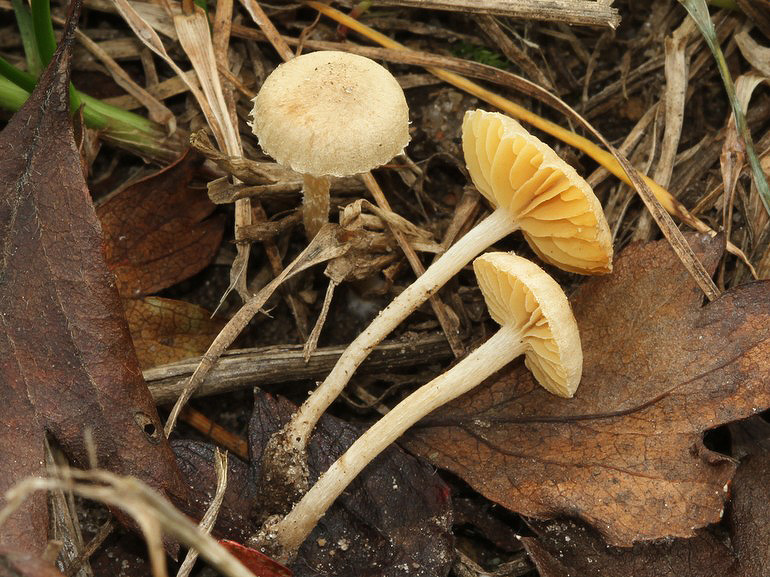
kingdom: Fungi
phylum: Basidiomycota
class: Agaricomycetes
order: Agaricales
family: Tubariaceae
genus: Tubaria
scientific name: Tubaria dispersa
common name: tjørne-fnughat
